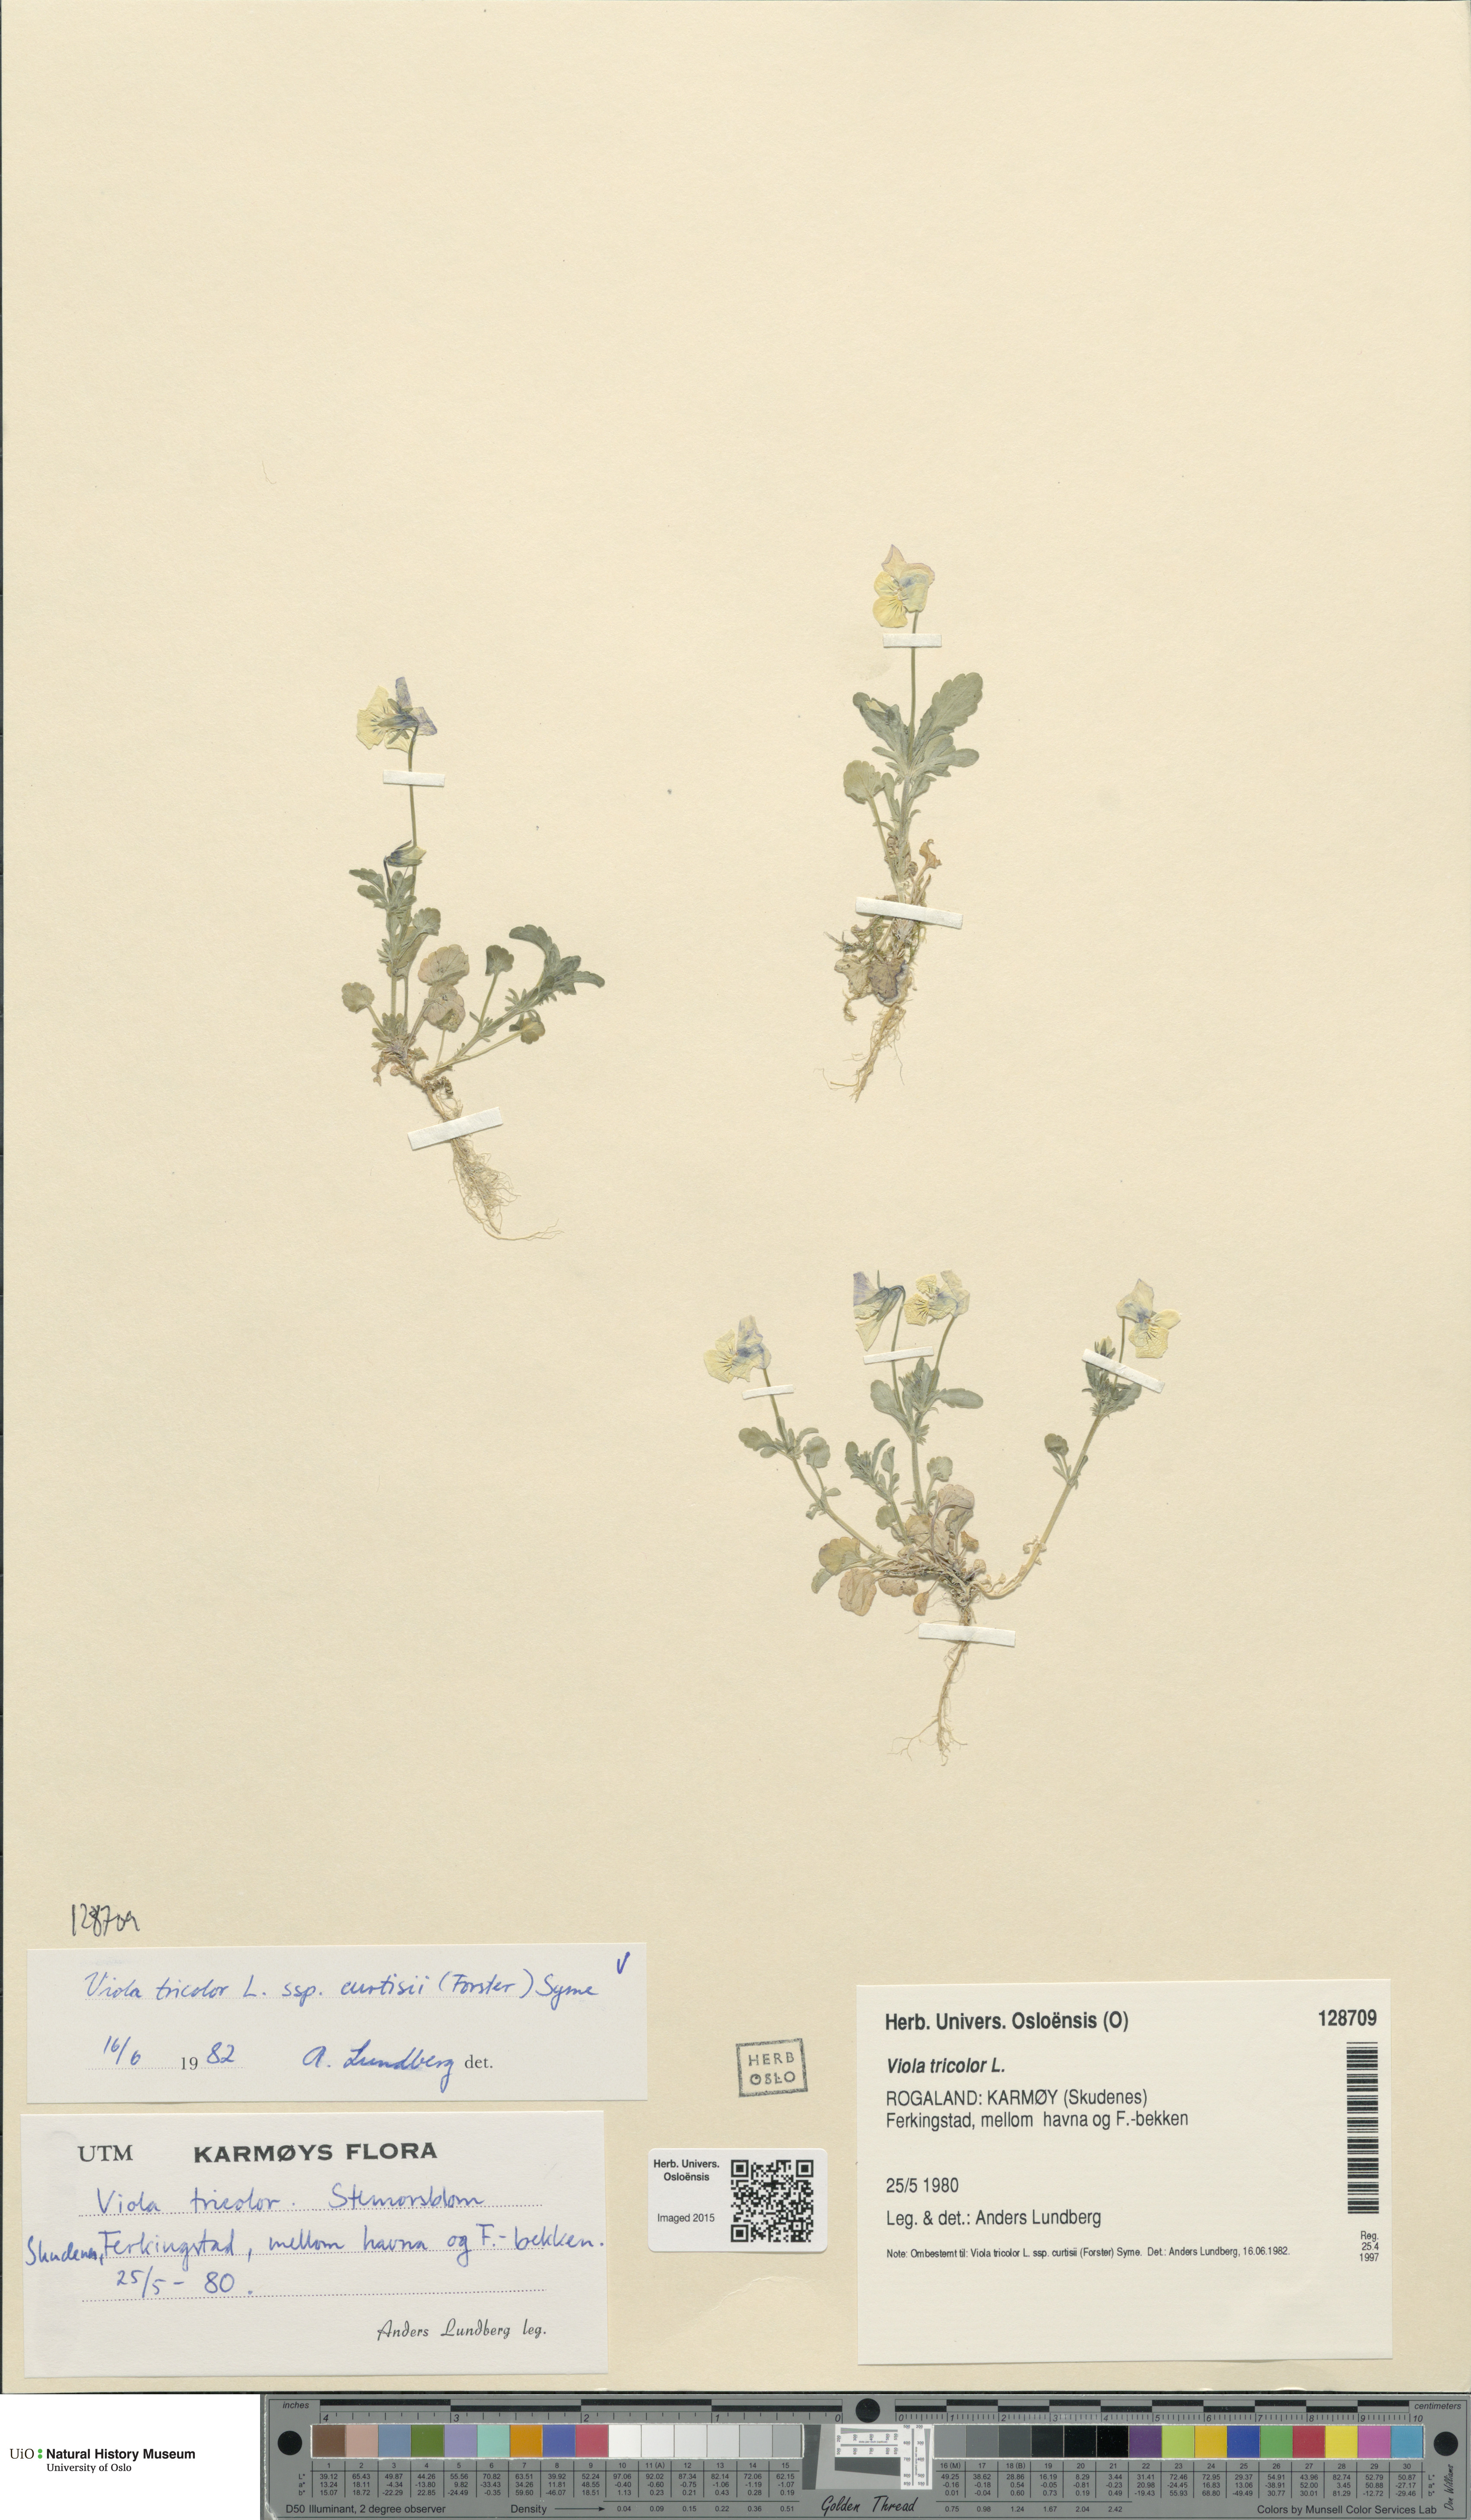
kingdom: Plantae
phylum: Tracheophyta
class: Magnoliopsida
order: Malpighiales
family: Violaceae
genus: Viola
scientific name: Viola tricolor
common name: Pansy
